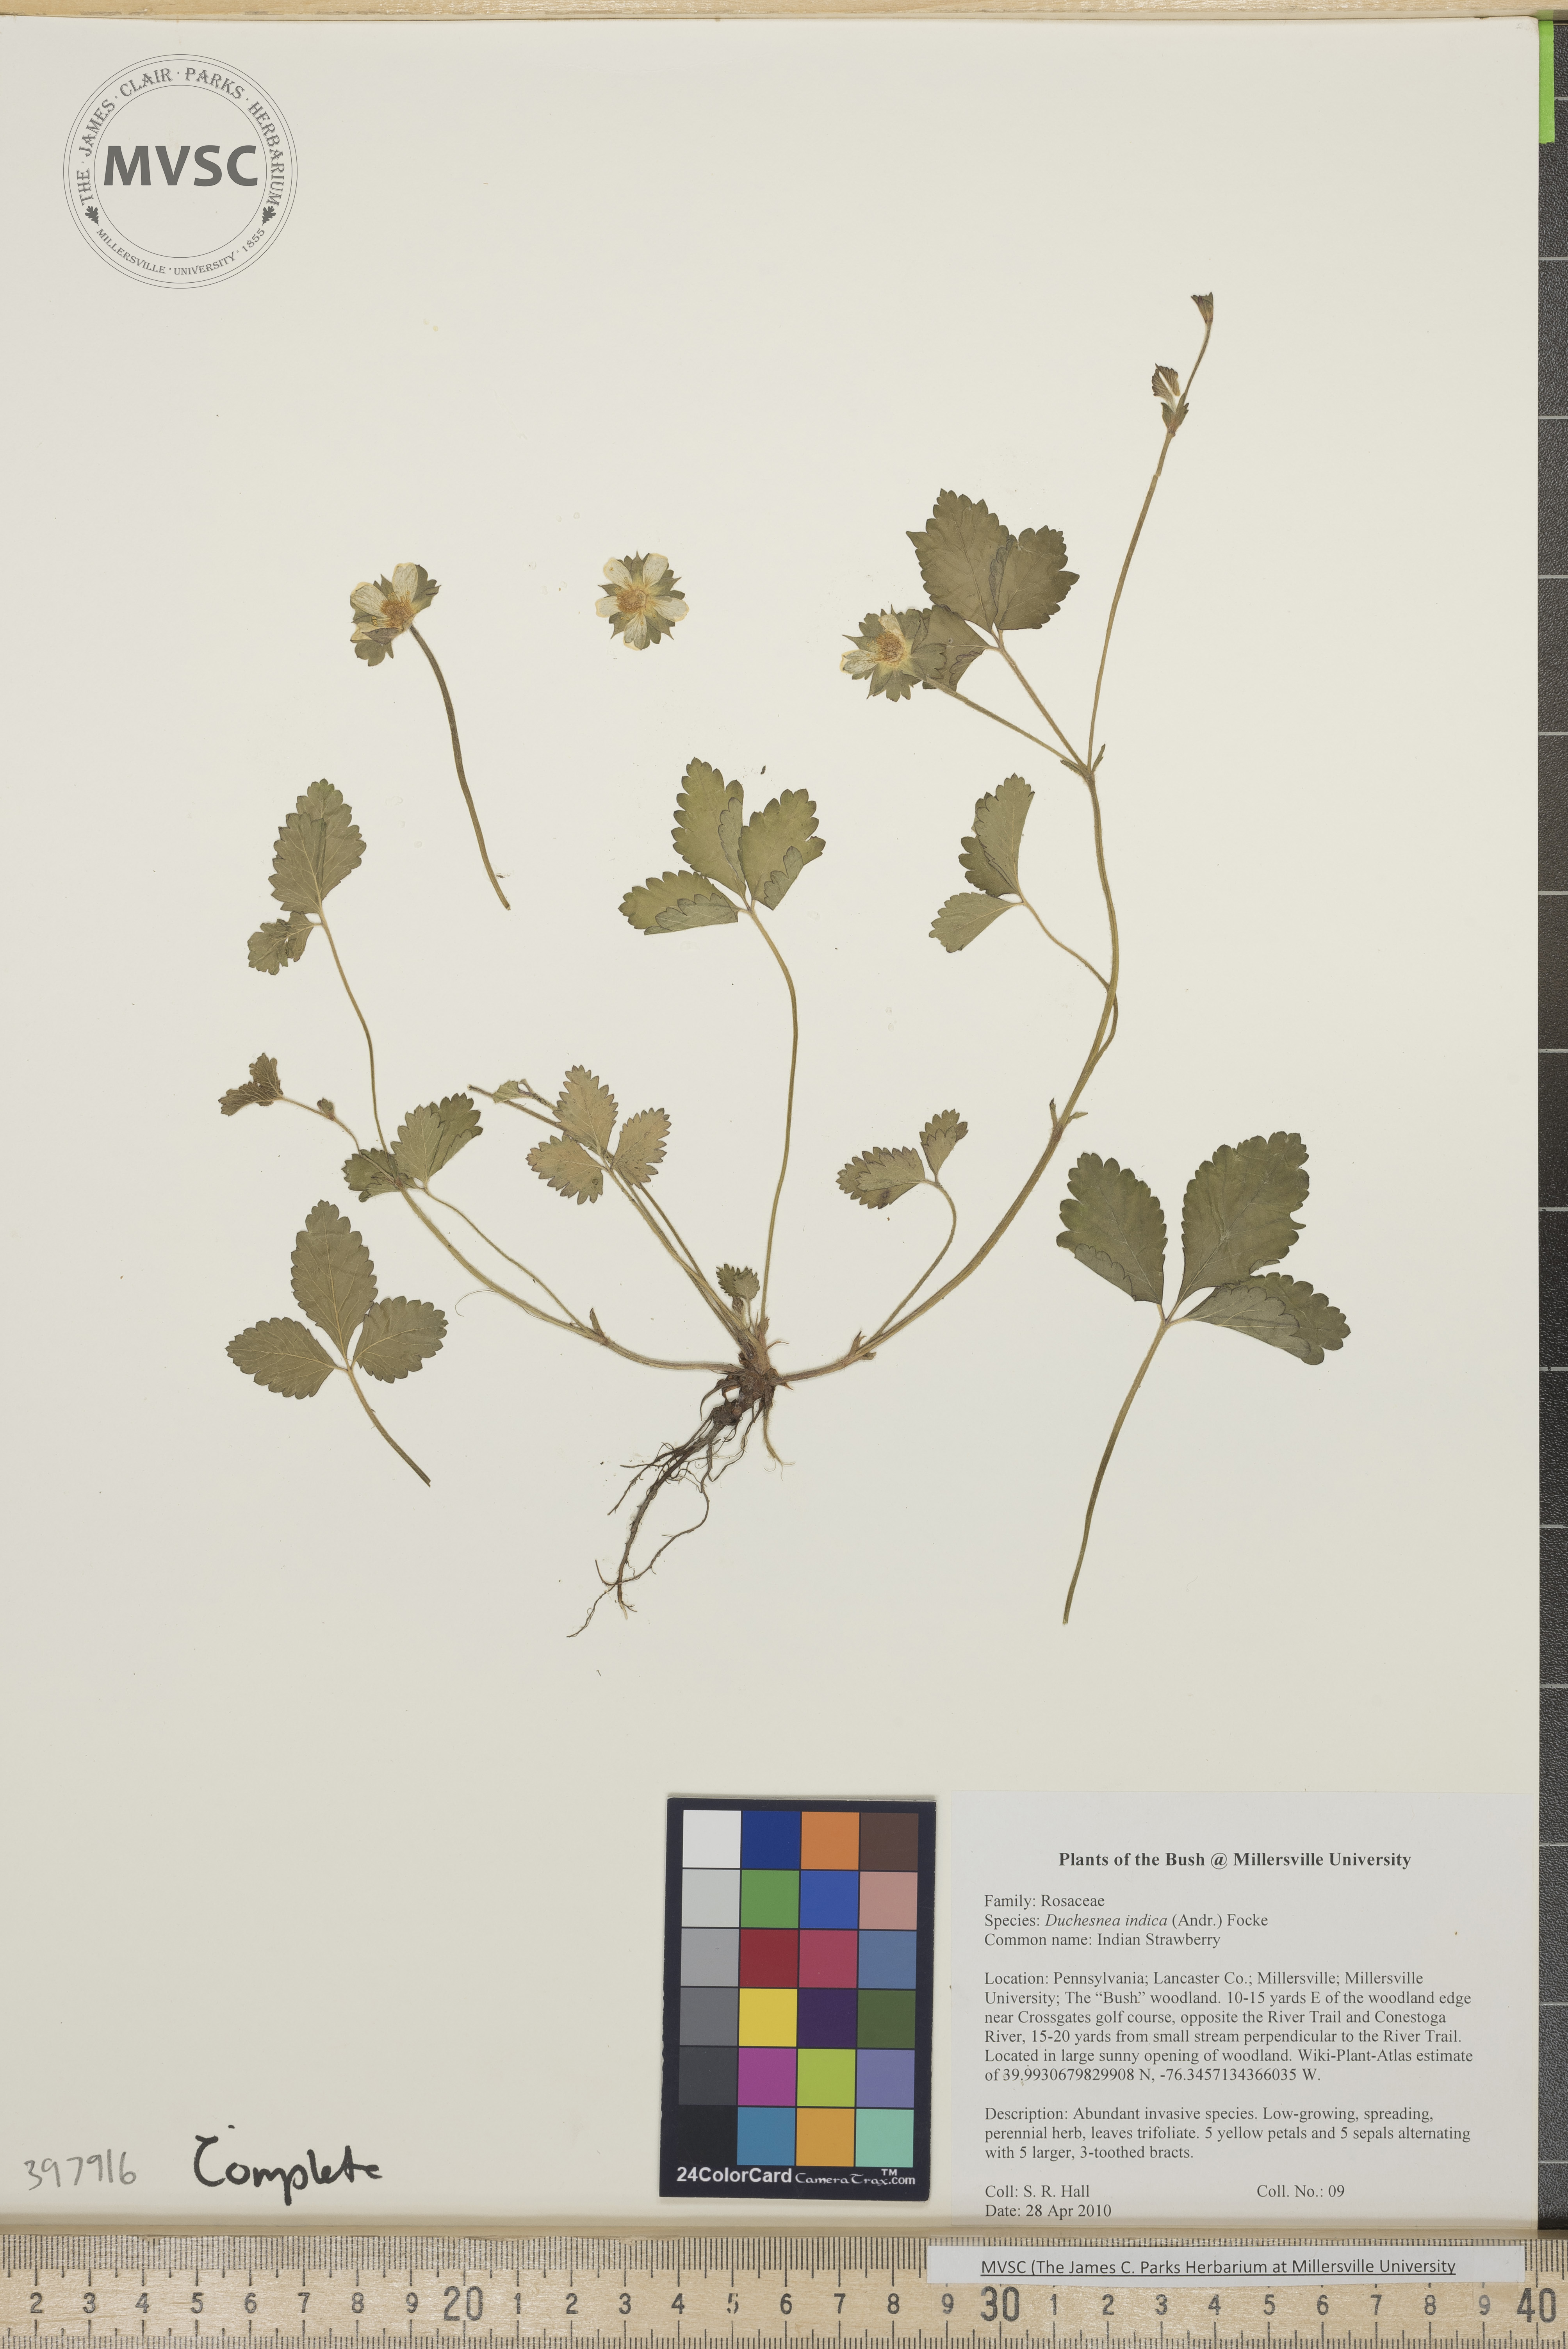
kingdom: Plantae
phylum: Tracheophyta
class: Magnoliopsida
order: Rosales
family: Rosaceae
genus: Potentilla
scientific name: Potentilla indica
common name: Indian strawberry
